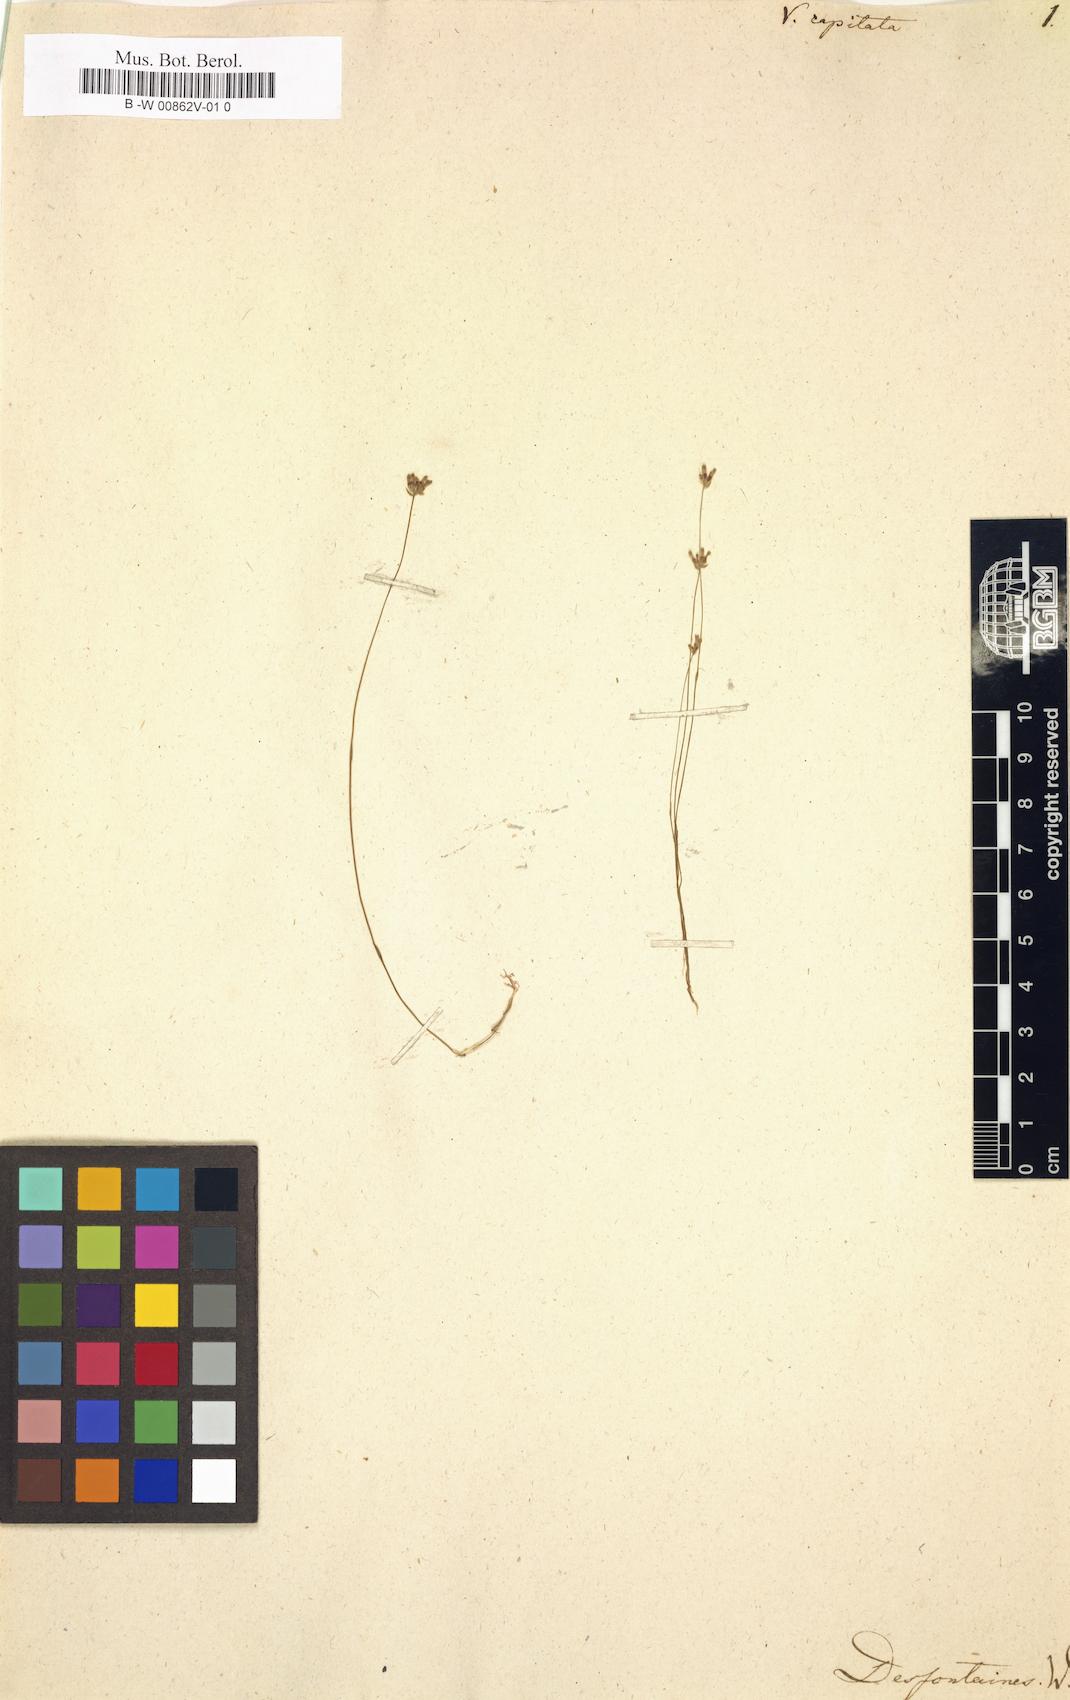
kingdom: Plantae
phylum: Tracheophyta
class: Liliopsida
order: Dioscoreales
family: Burmanniaceae
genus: Burmannia
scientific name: Burmannia capitata
